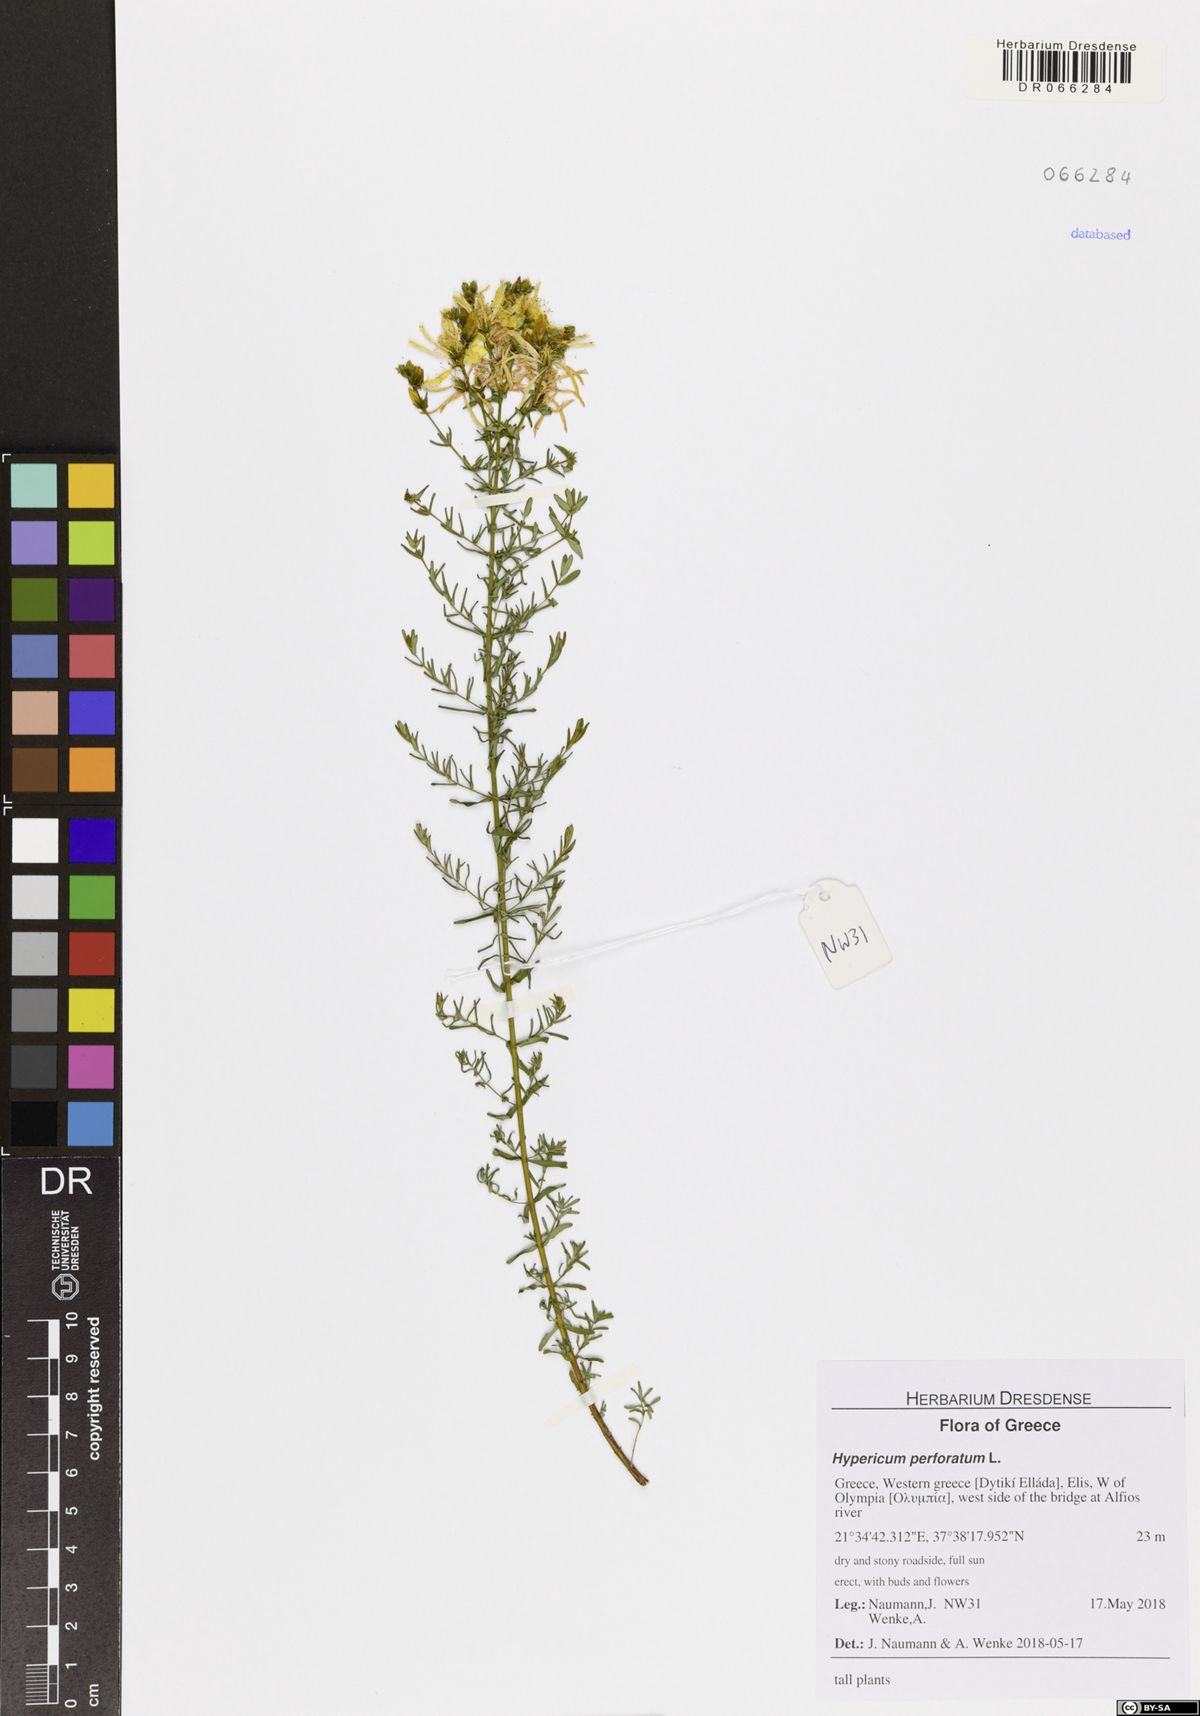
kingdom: Plantae
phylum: Tracheophyta
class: Magnoliopsida
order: Malpighiales
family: Hypericaceae
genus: Hypericum
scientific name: Hypericum perforatum
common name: Common st. johnswort
